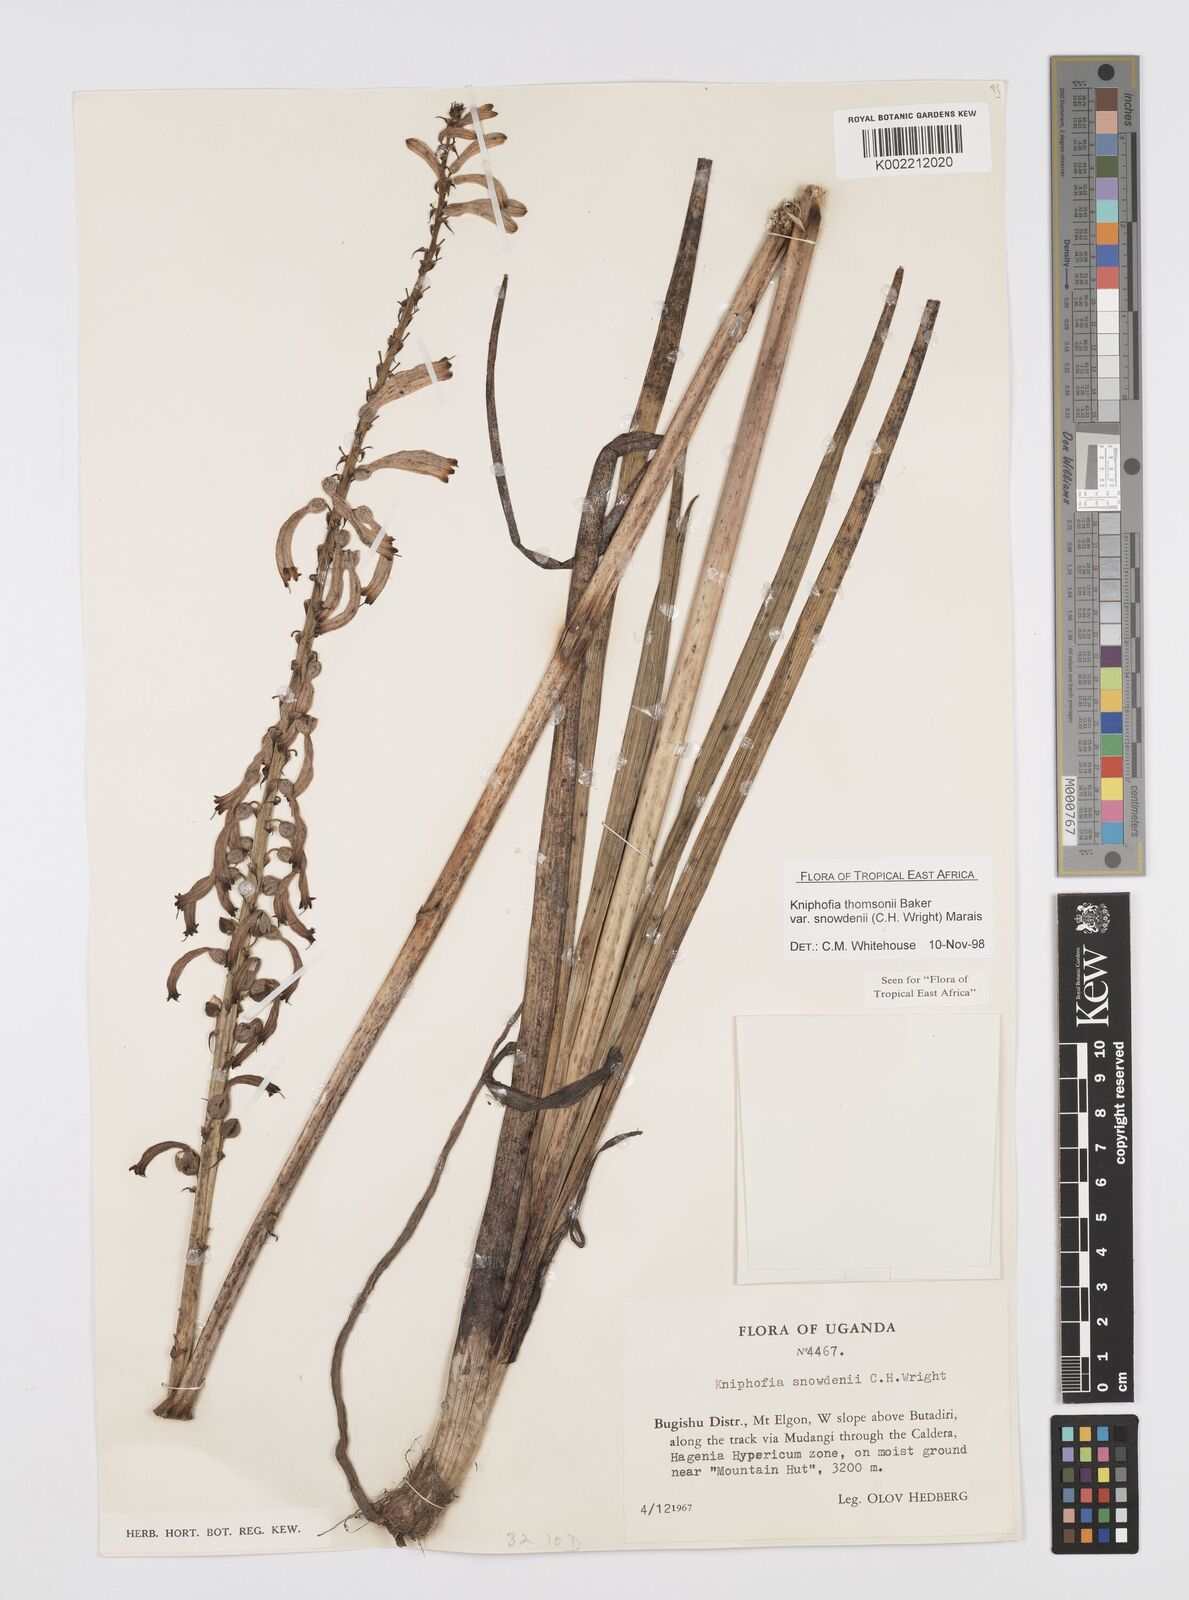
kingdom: Plantae
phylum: Tracheophyta
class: Liliopsida
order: Asparagales
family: Asphodelaceae
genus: Kniphofia
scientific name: Kniphofia thomsonii
